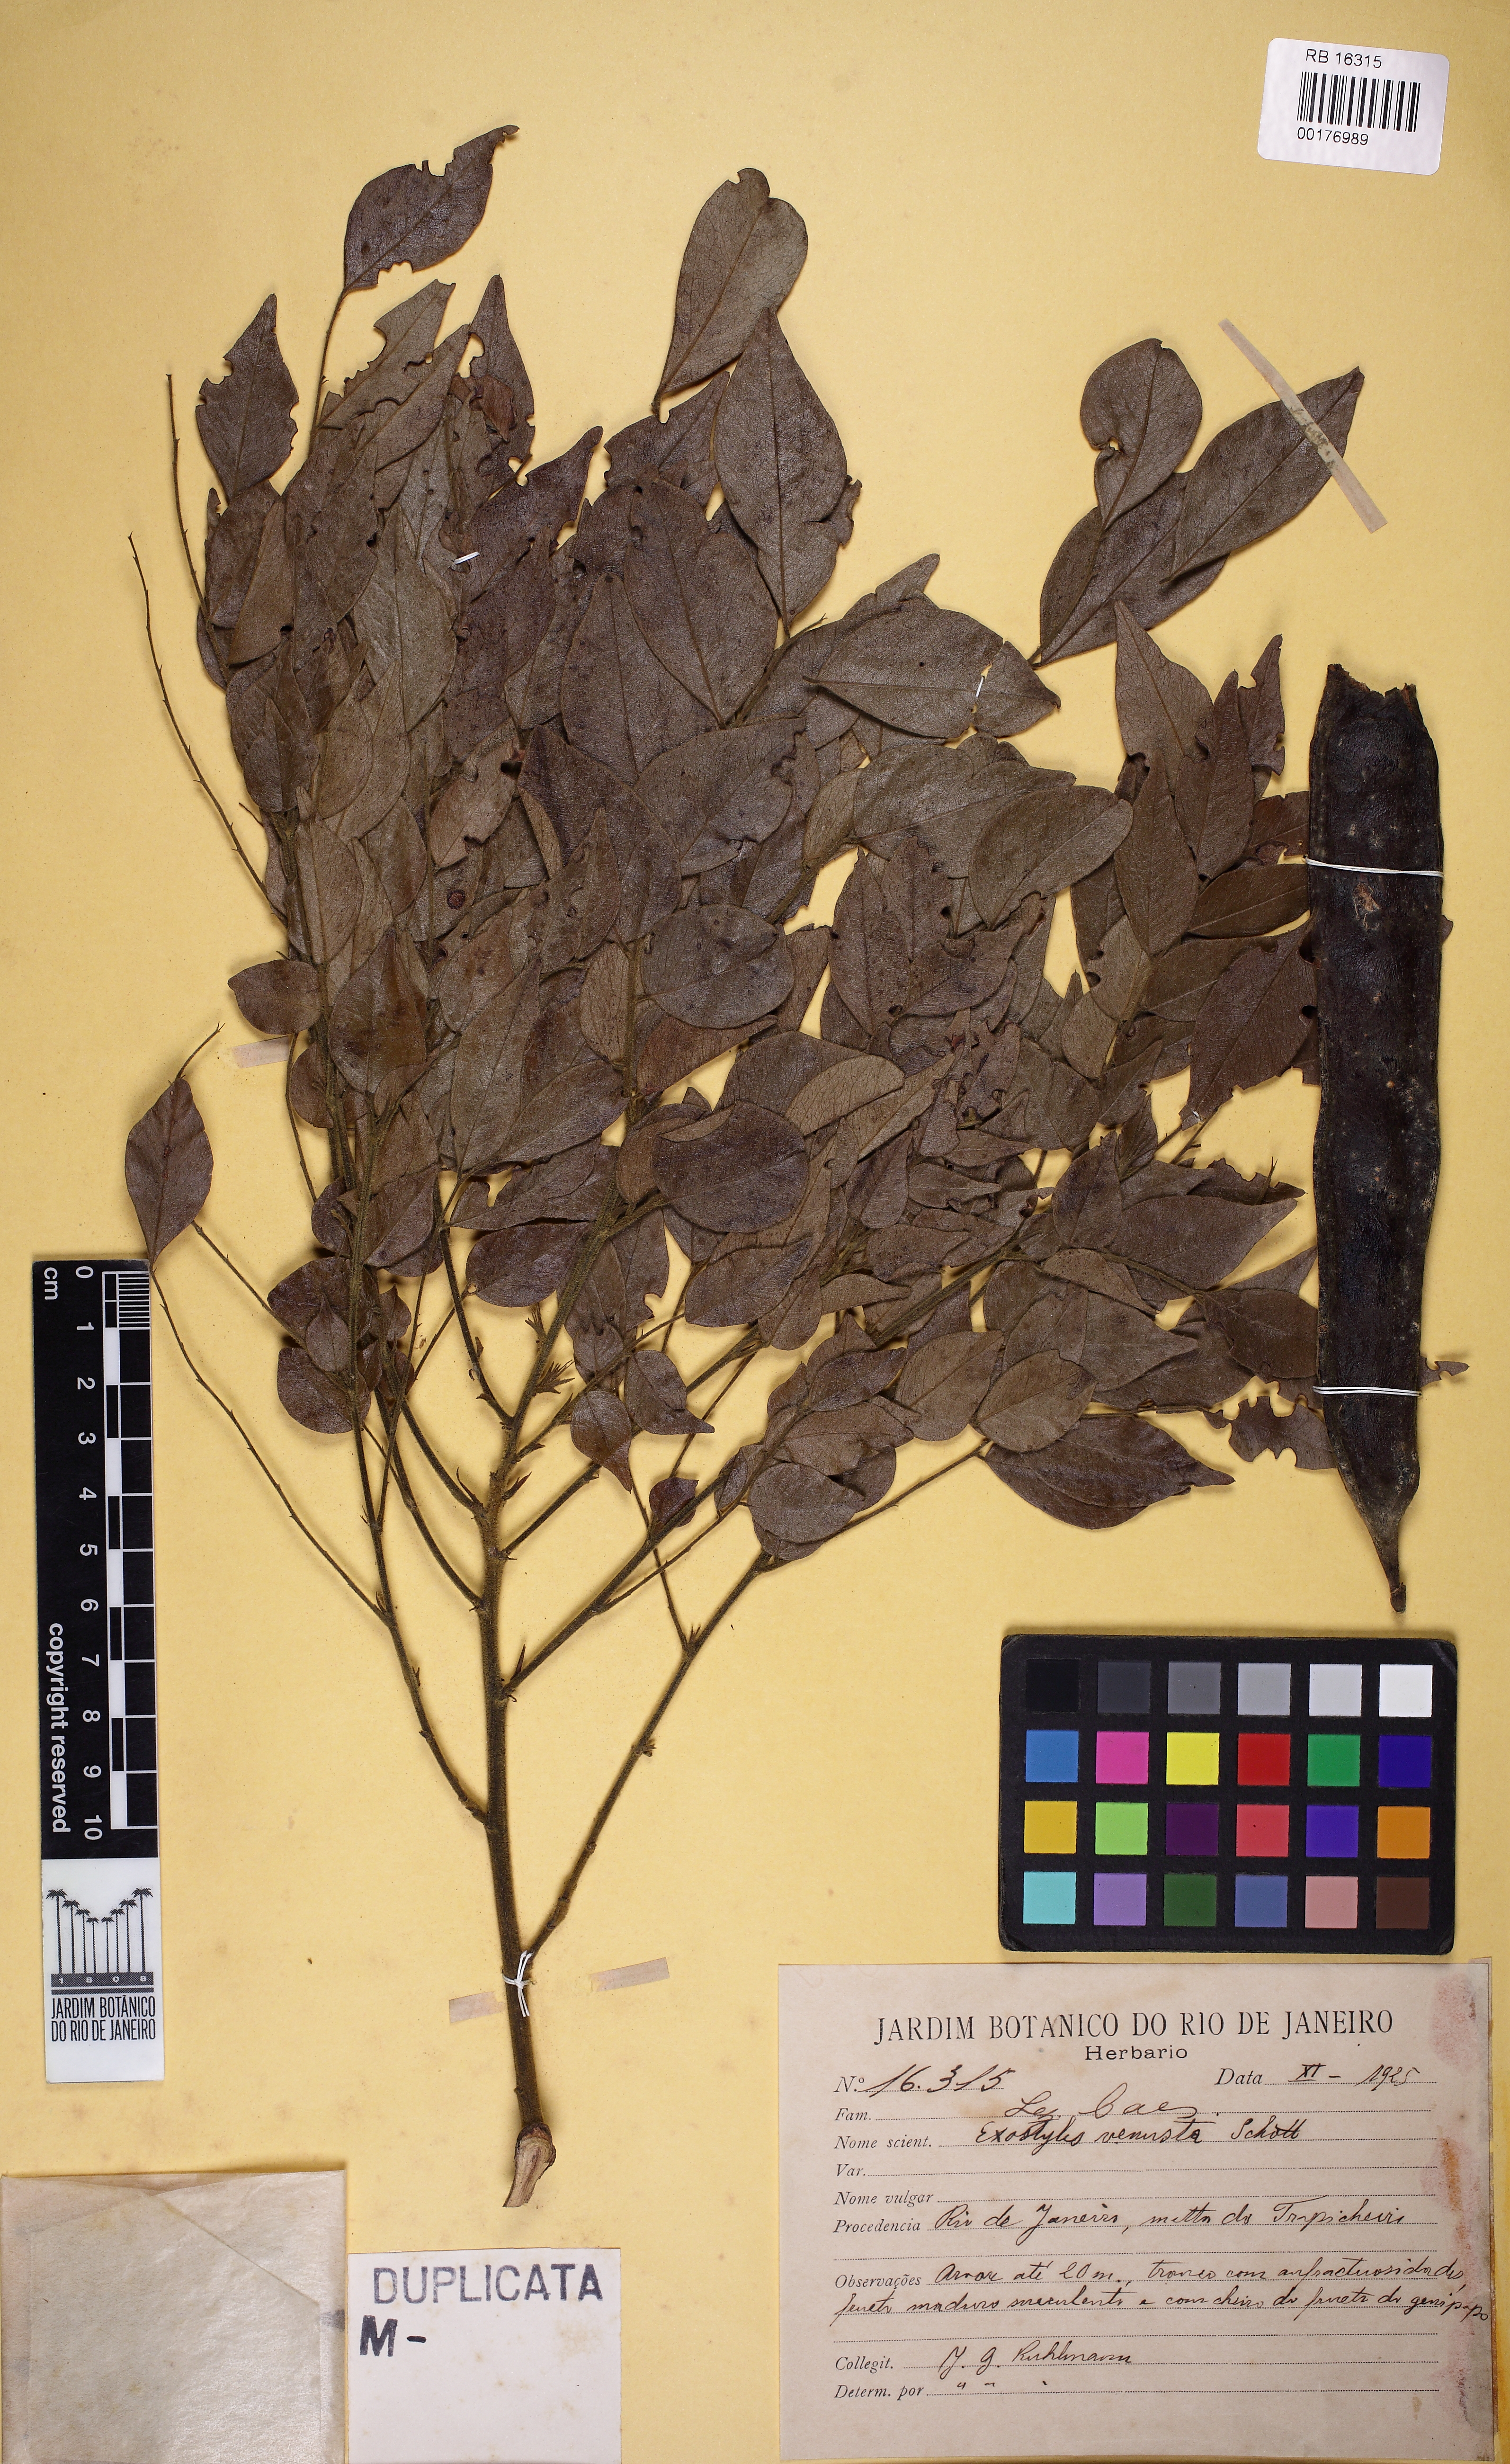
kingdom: Plantae
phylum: Tracheophyta
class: Magnoliopsida
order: Fabales
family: Fabaceae
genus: Exostyles
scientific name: Exostyles venusta
